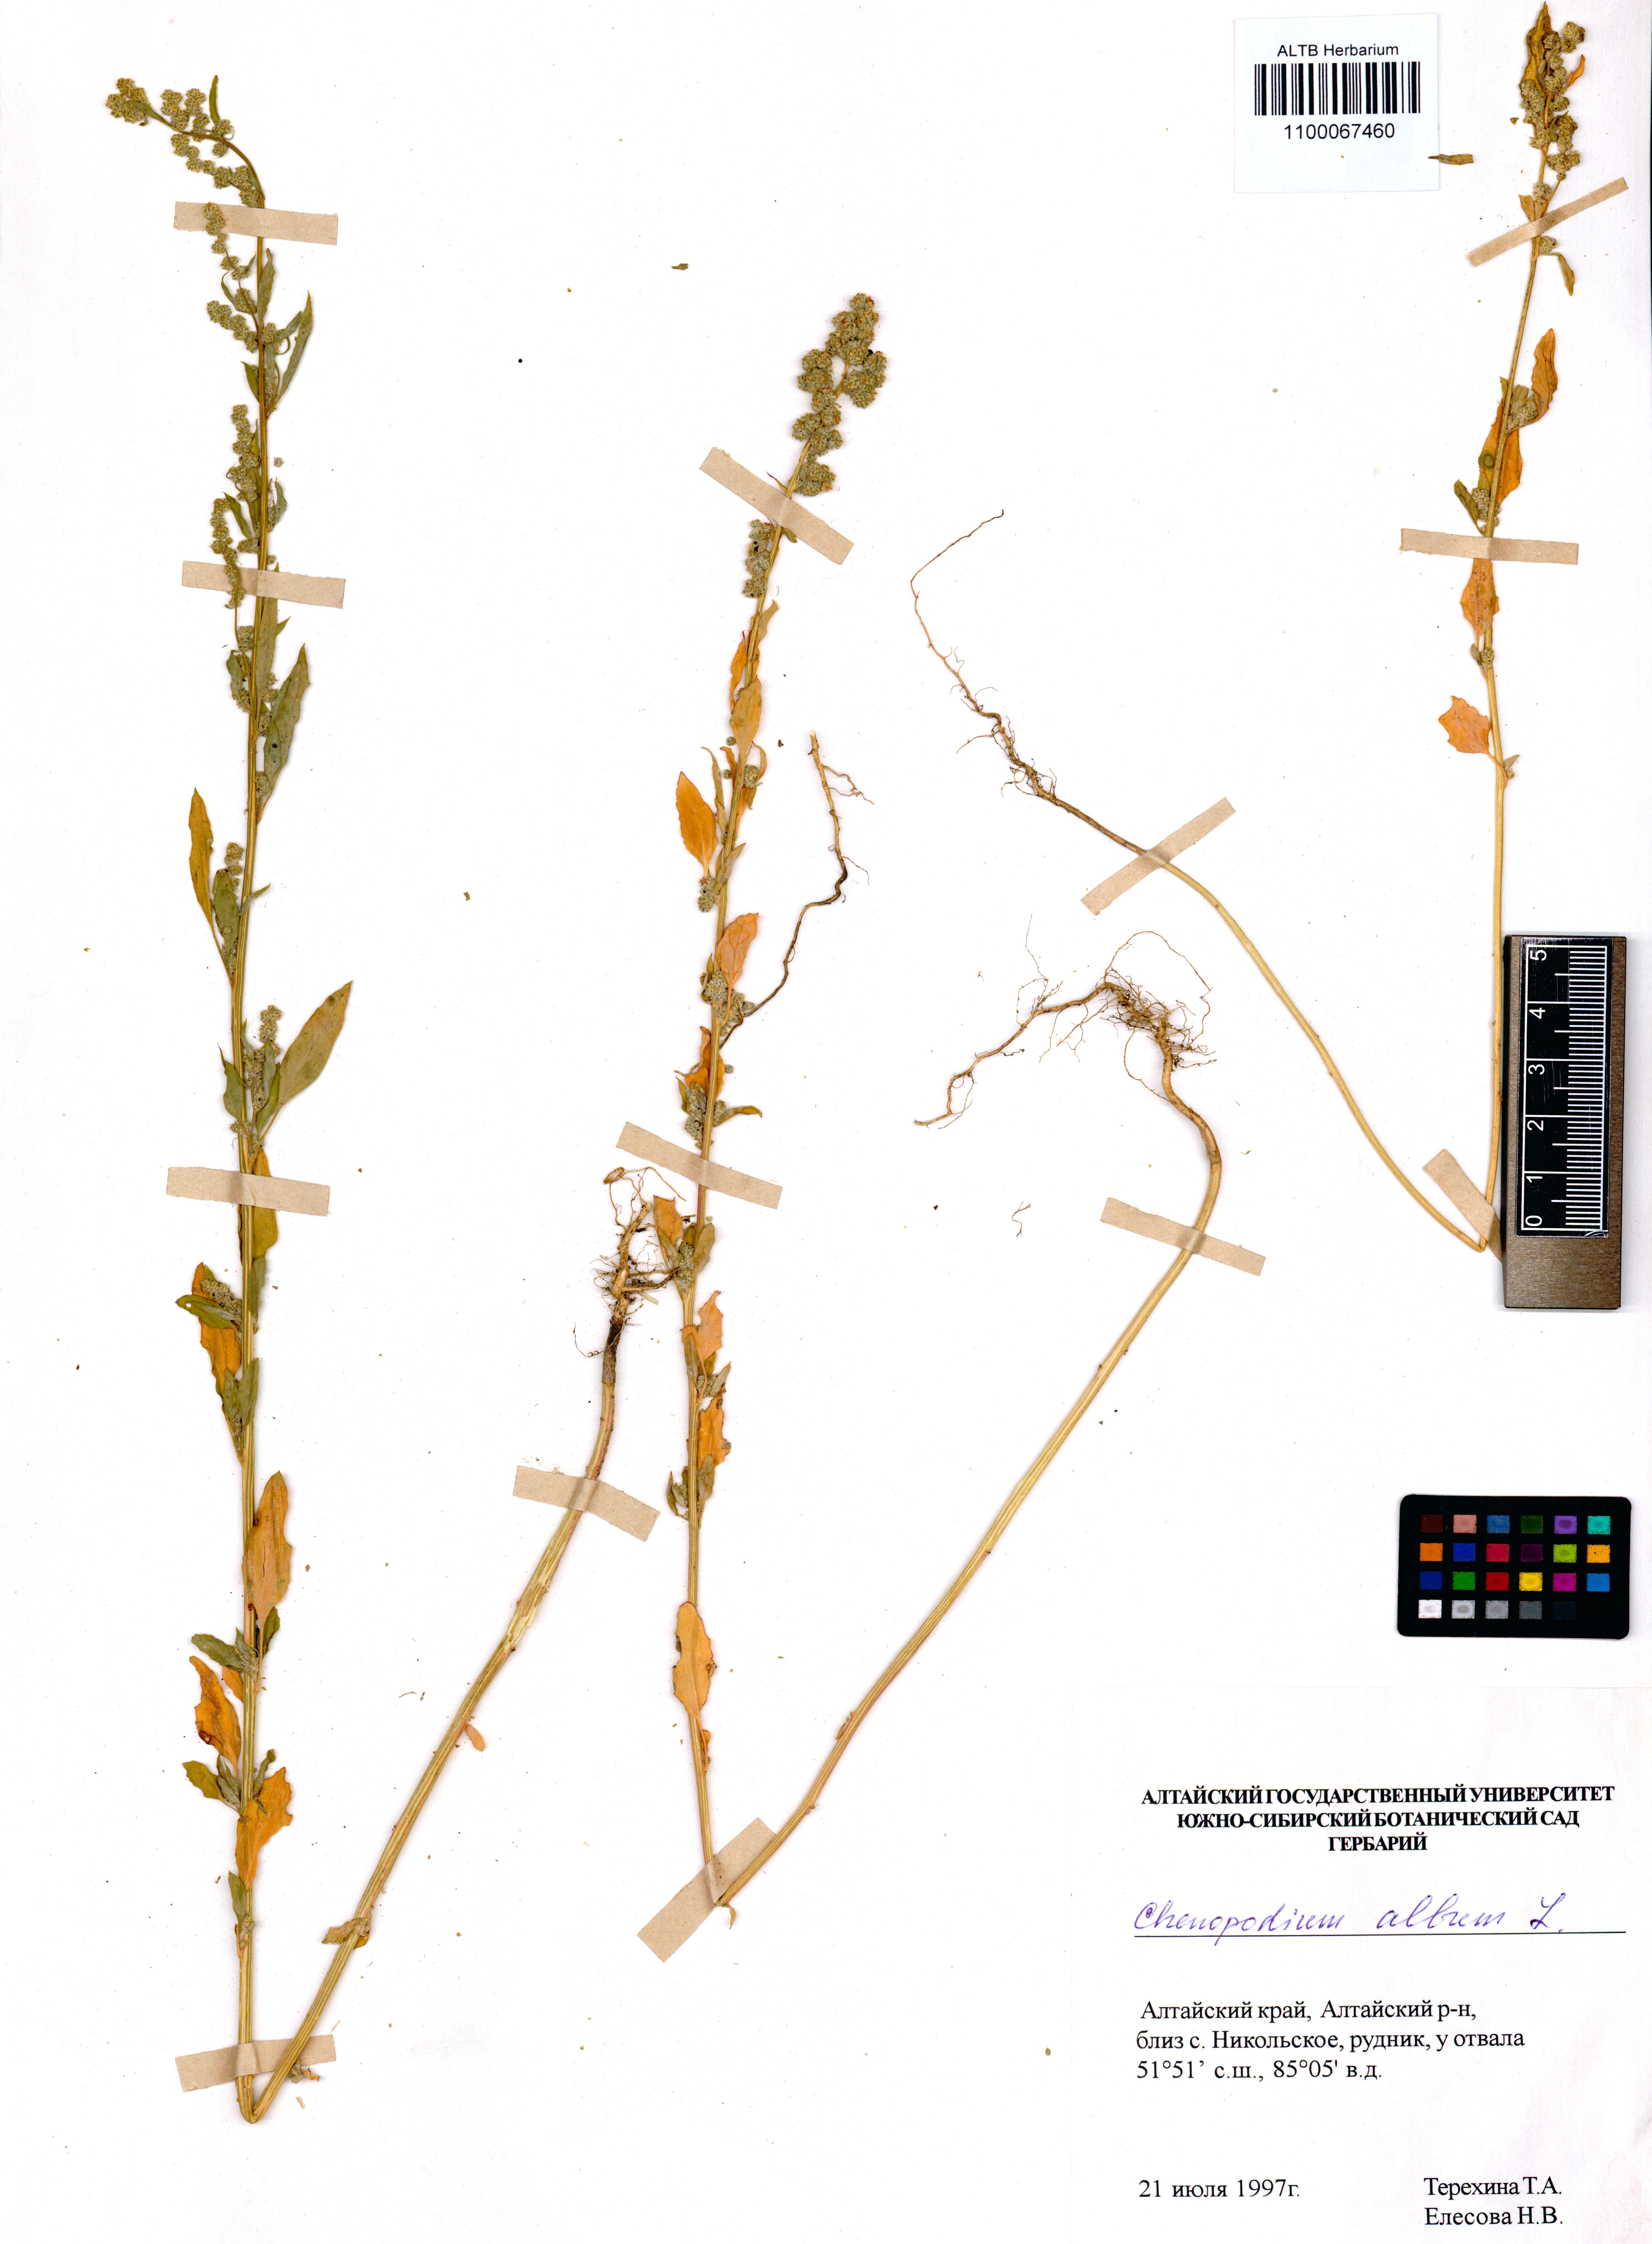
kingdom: Plantae
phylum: Tracheophyta
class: Magnoliopsida
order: Caryophyllales
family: Amaranthaceae
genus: Chenopodium
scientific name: Chenopodium album
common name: Fat-hen
